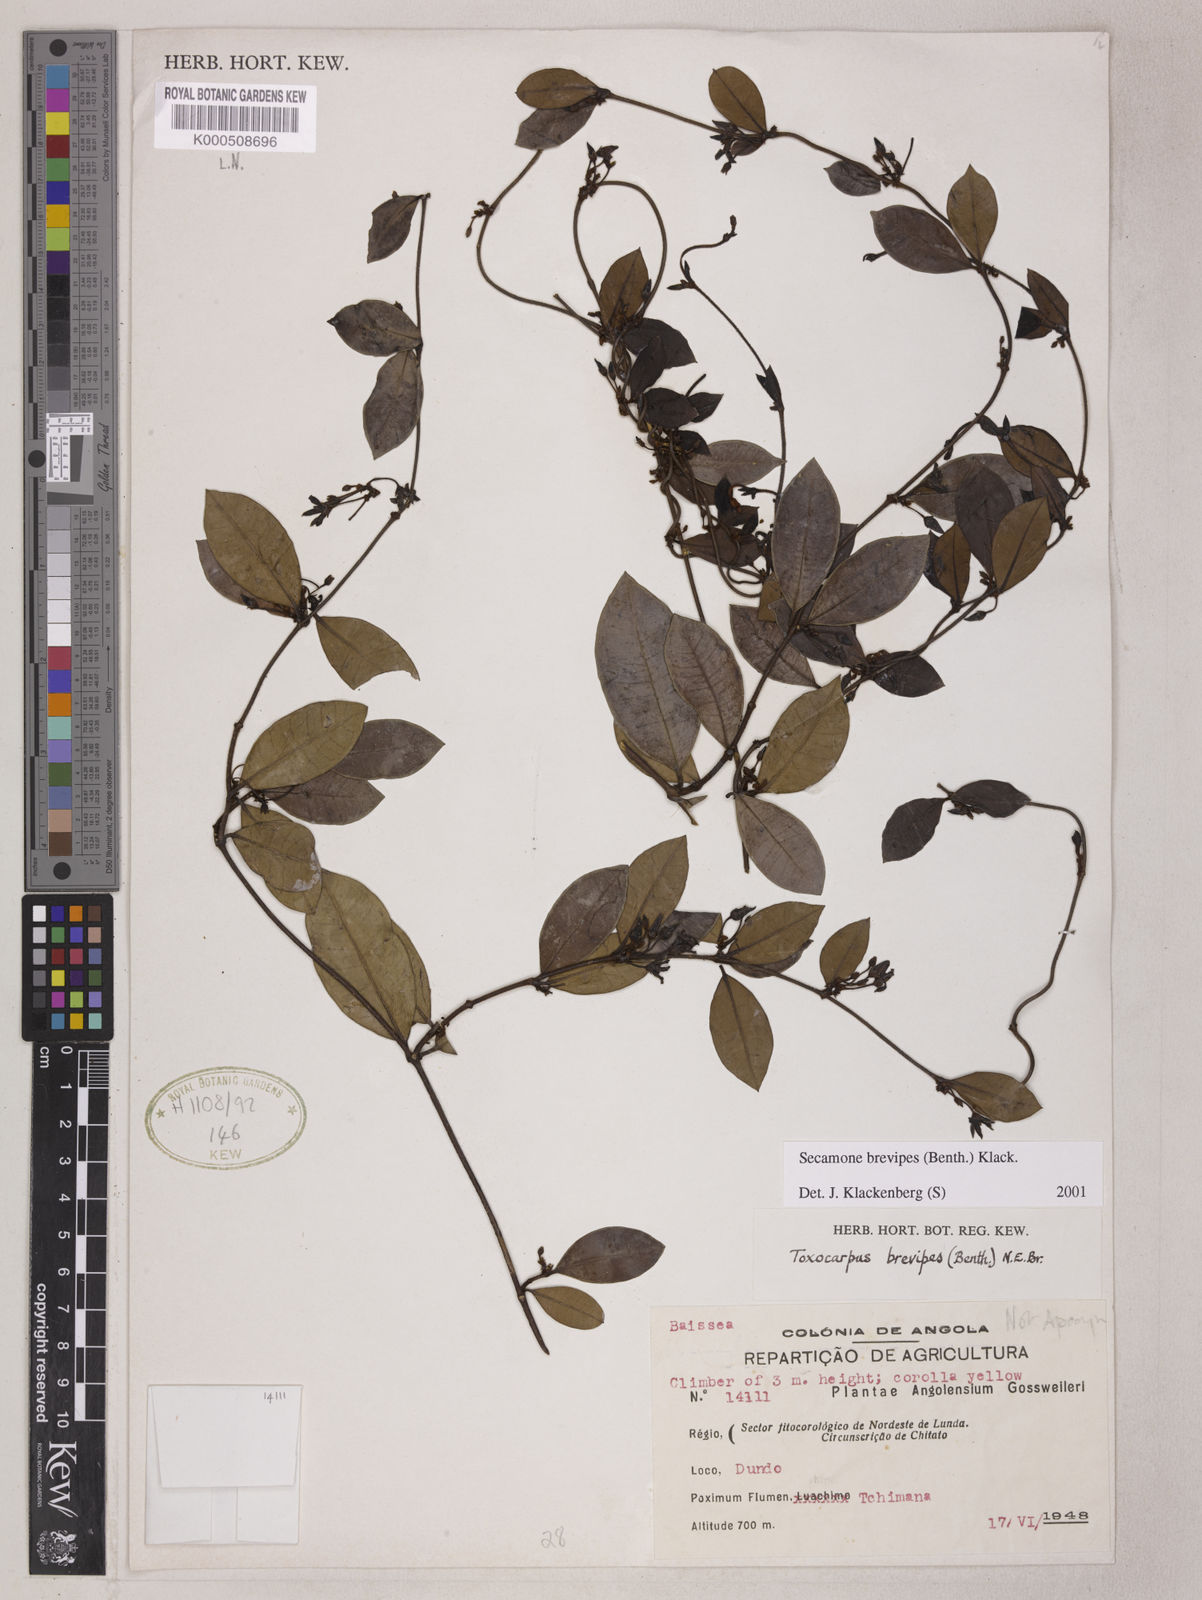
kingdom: Plantae
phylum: Tracheophyta
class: Magnoliopsida
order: Gentianales
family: Apocynaceae
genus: Secamone
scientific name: Secamone brevipes
